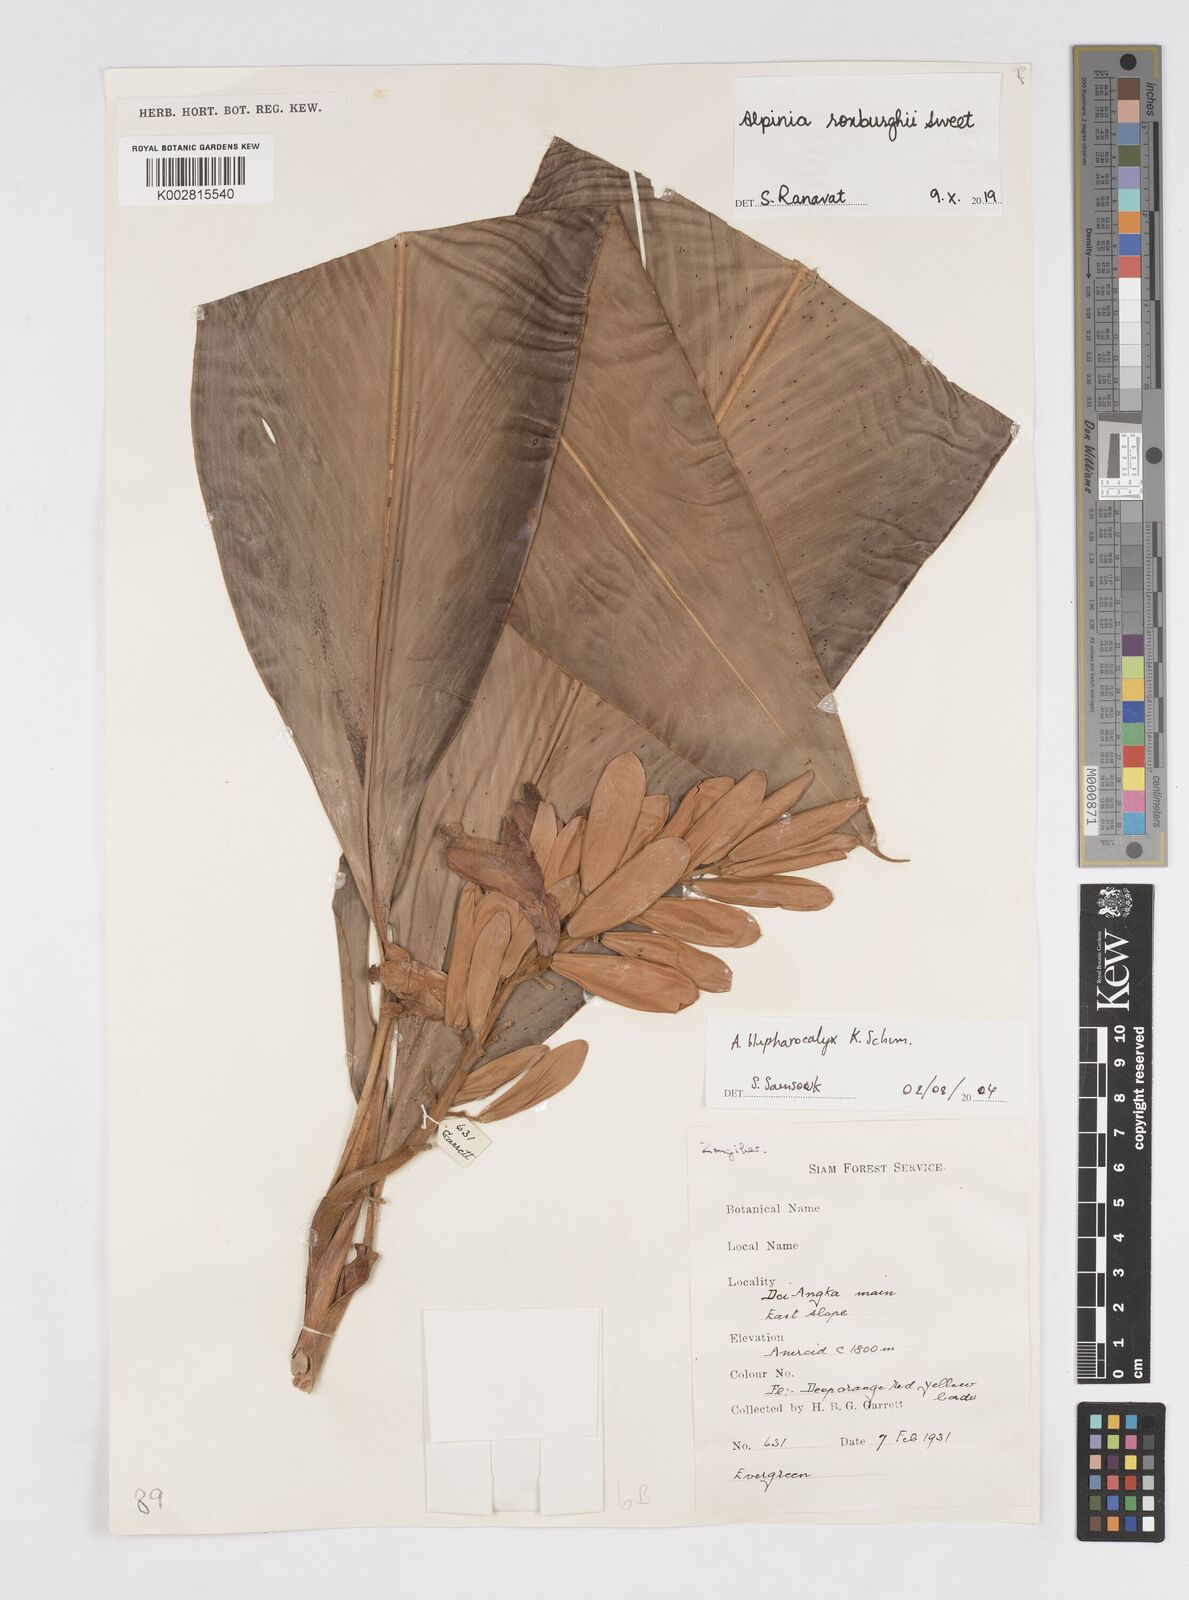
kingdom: Plantae
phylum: Tracheophyta
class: Liliopsida
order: Zingiberales
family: Zingiberaceae
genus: Alpinia
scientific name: Alpinia roxburghii
